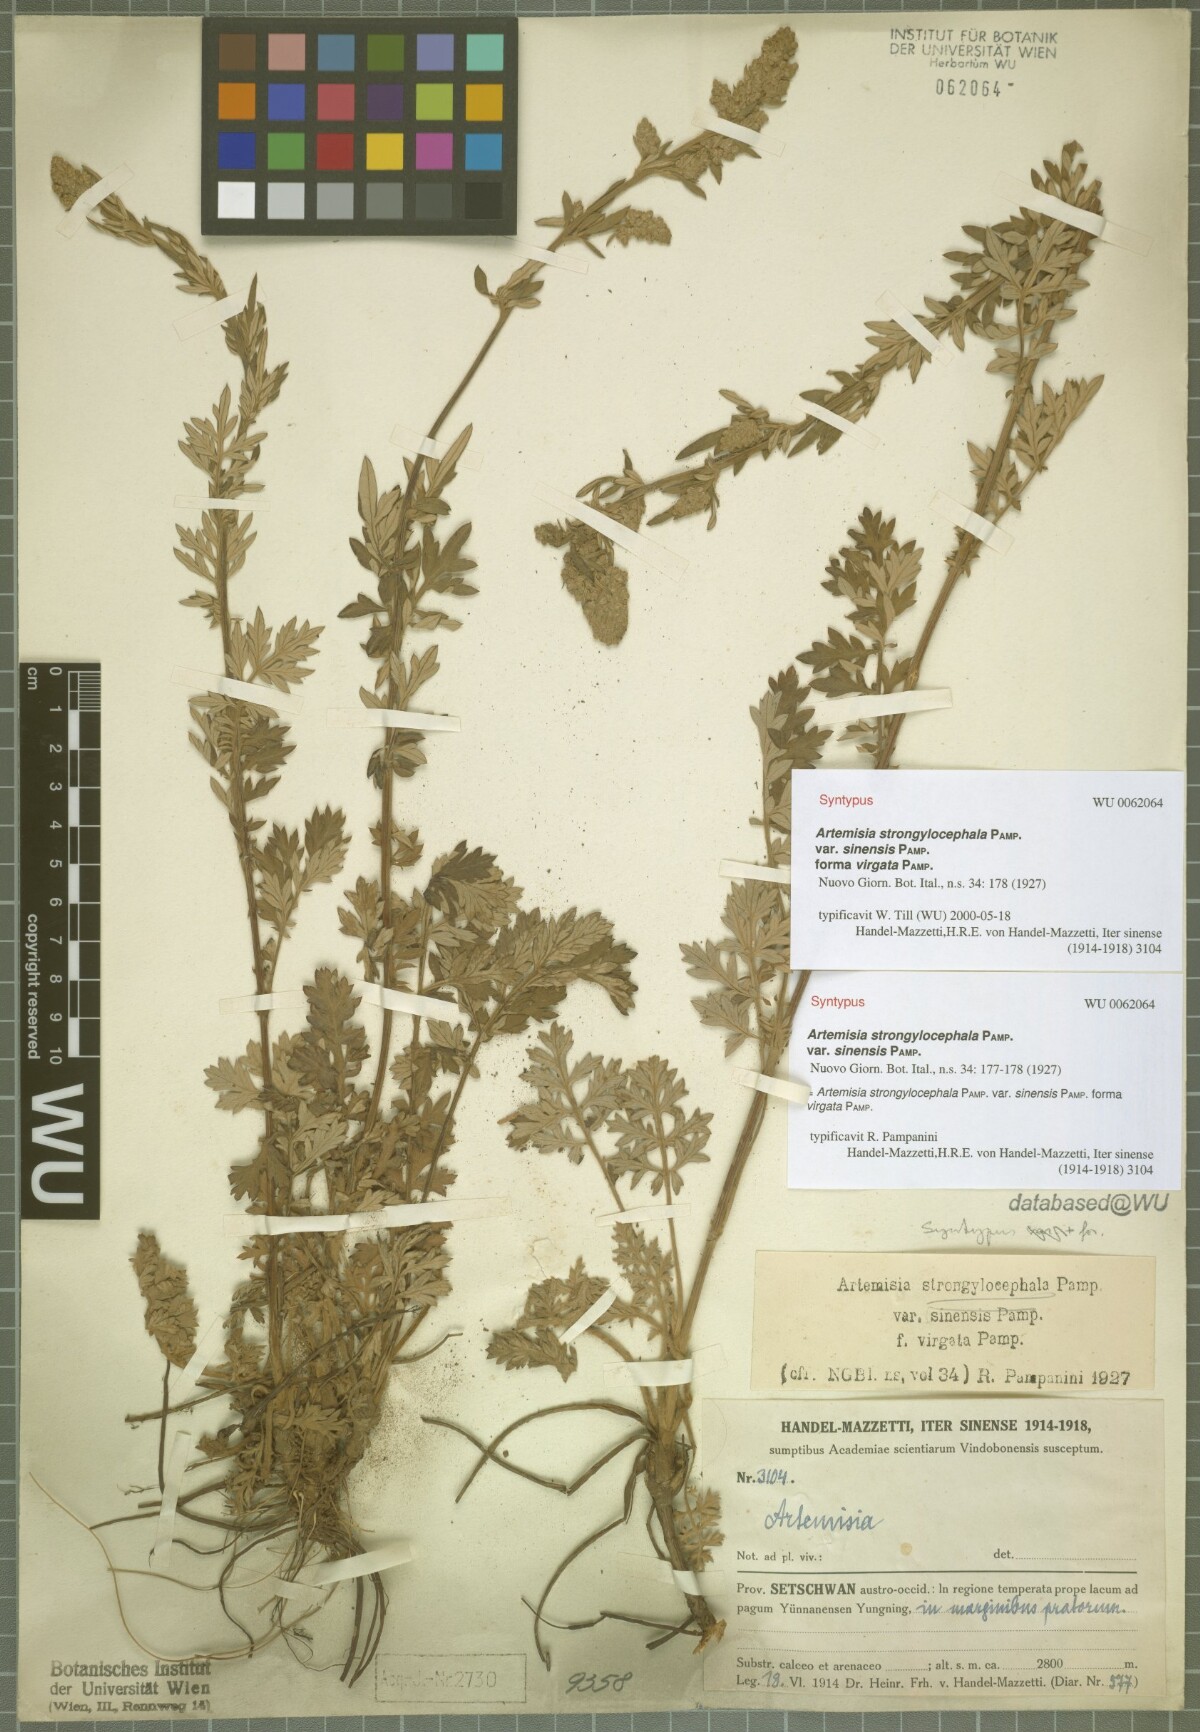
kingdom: Plantae
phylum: Tracheophyta
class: Magnoliopsida
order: Asterales
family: Asteraceae
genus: Artemisia
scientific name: Artemisia neosinensis
